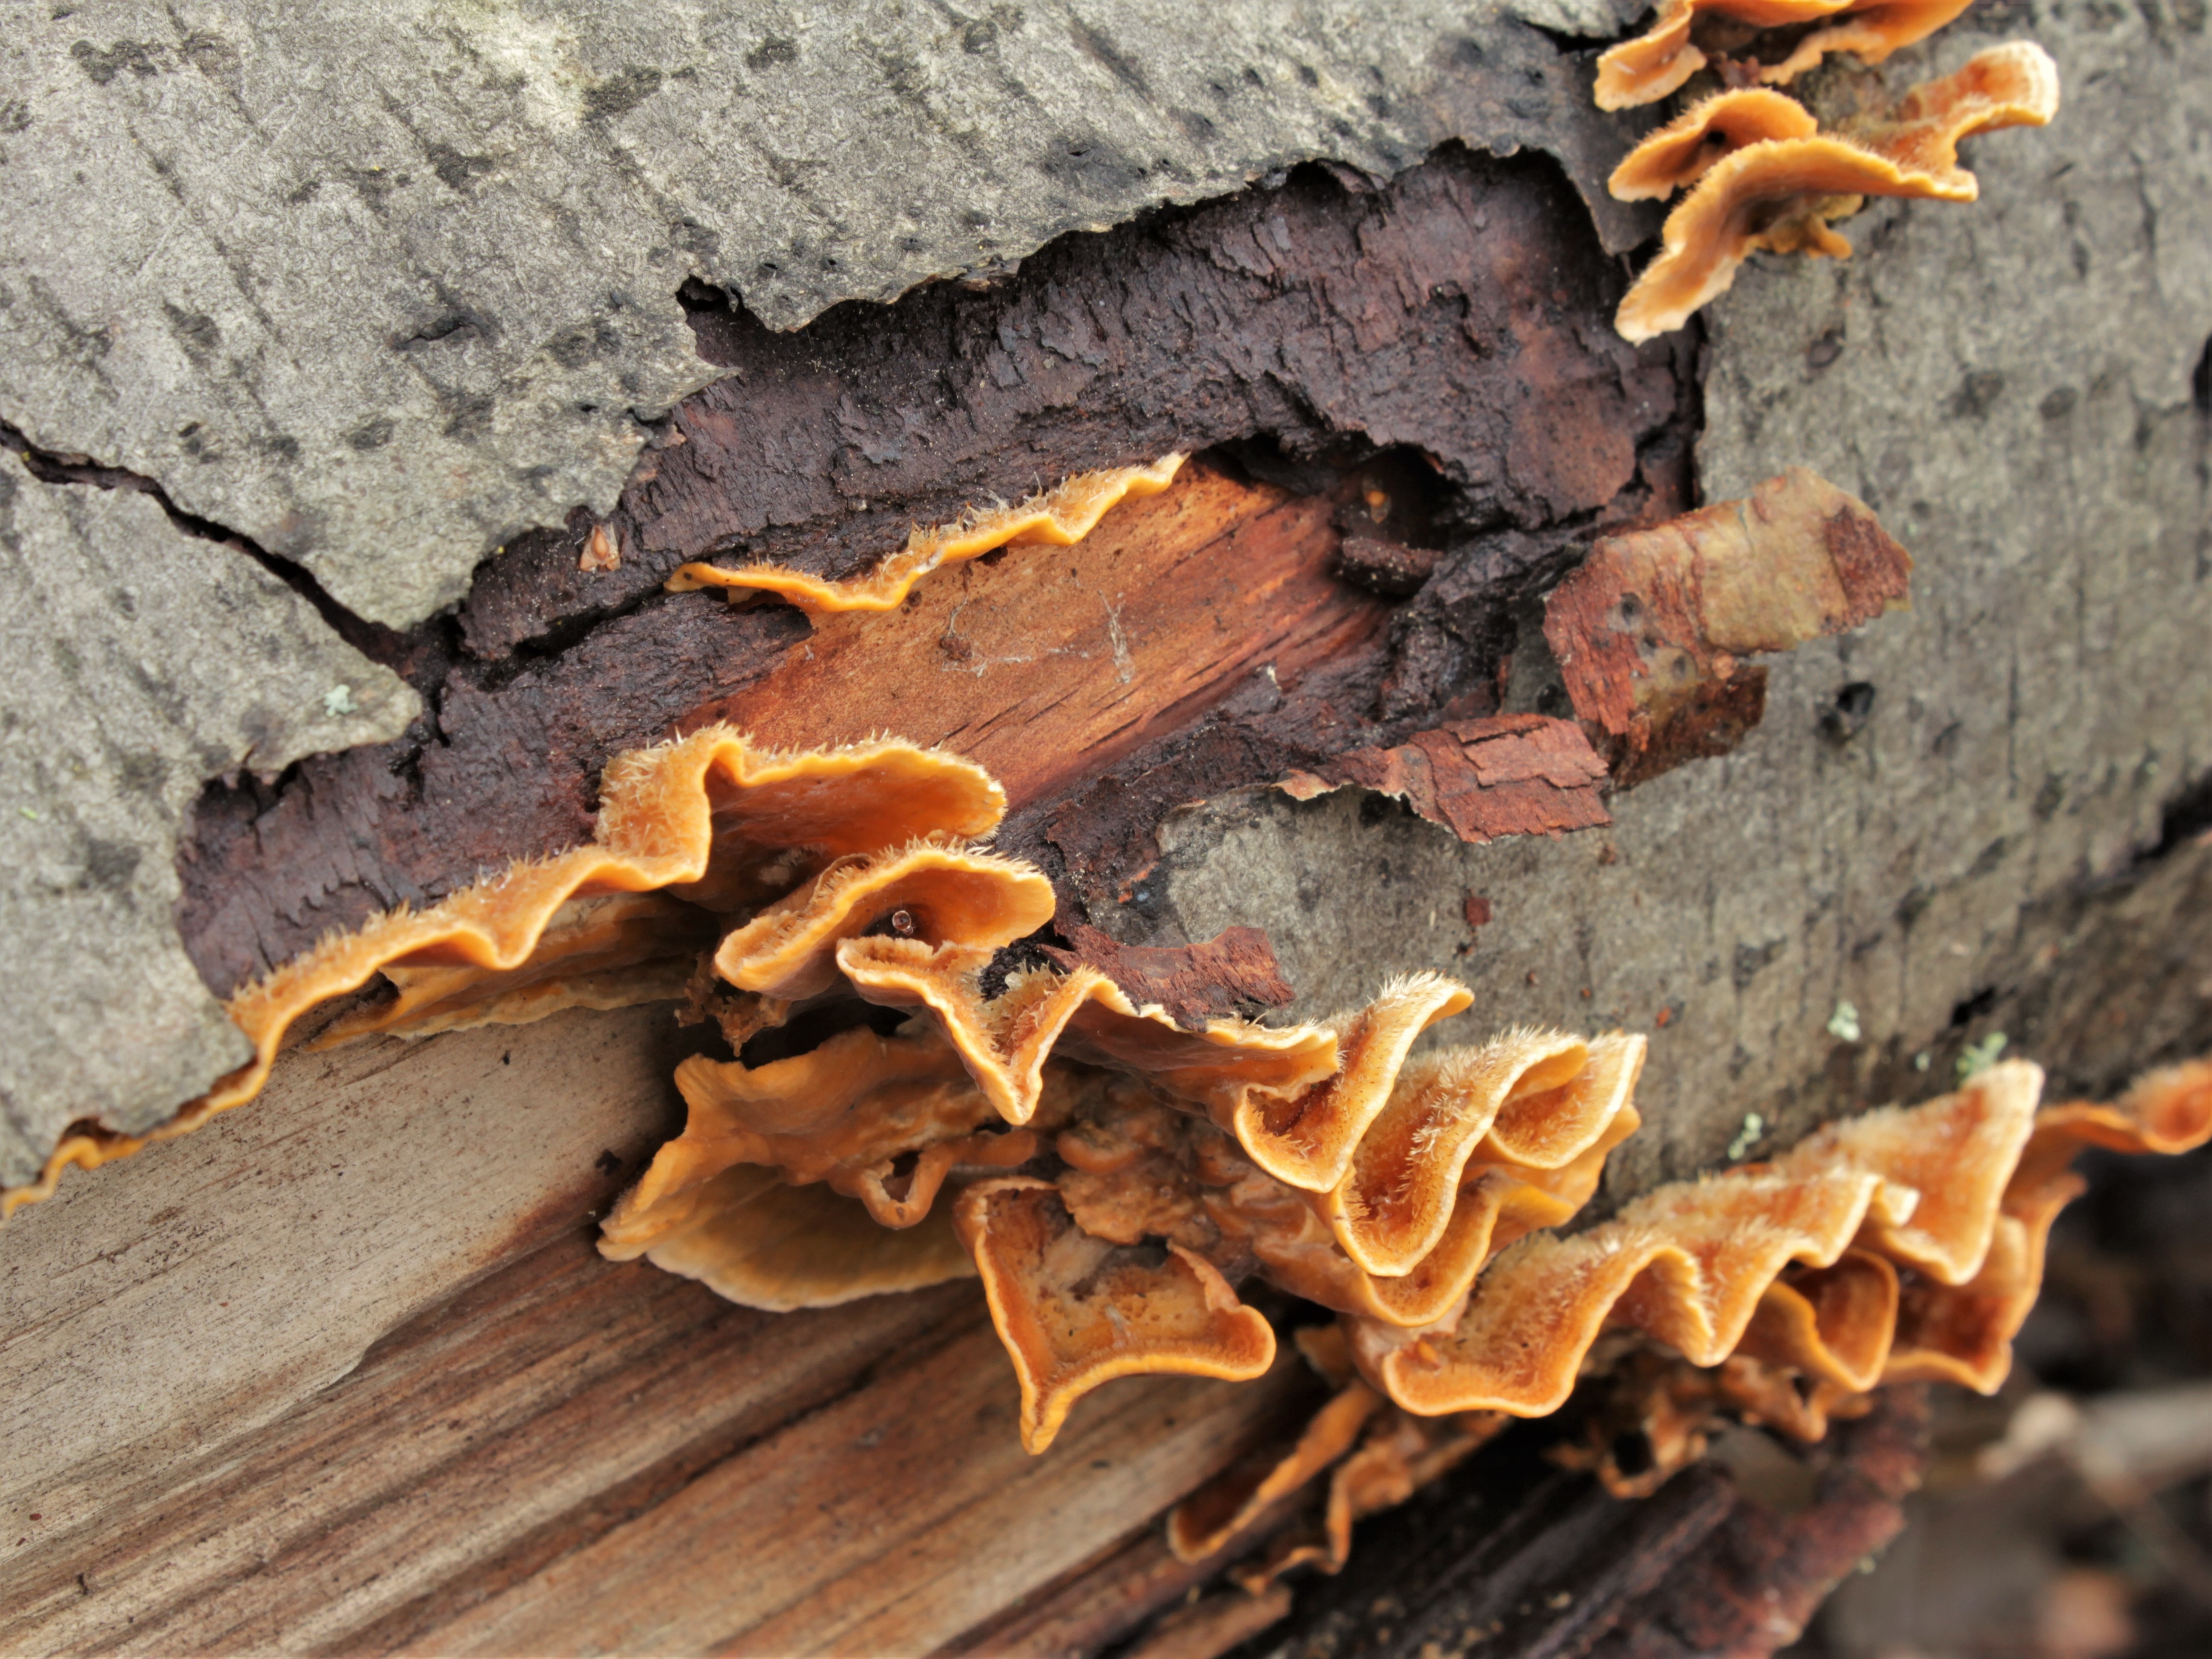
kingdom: Fungi
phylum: Basidiomycota
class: Agaricomycetes
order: Russulales
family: Stereaceae
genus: Stereum
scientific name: Stereum hirsutum
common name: Hairy curtain crust
